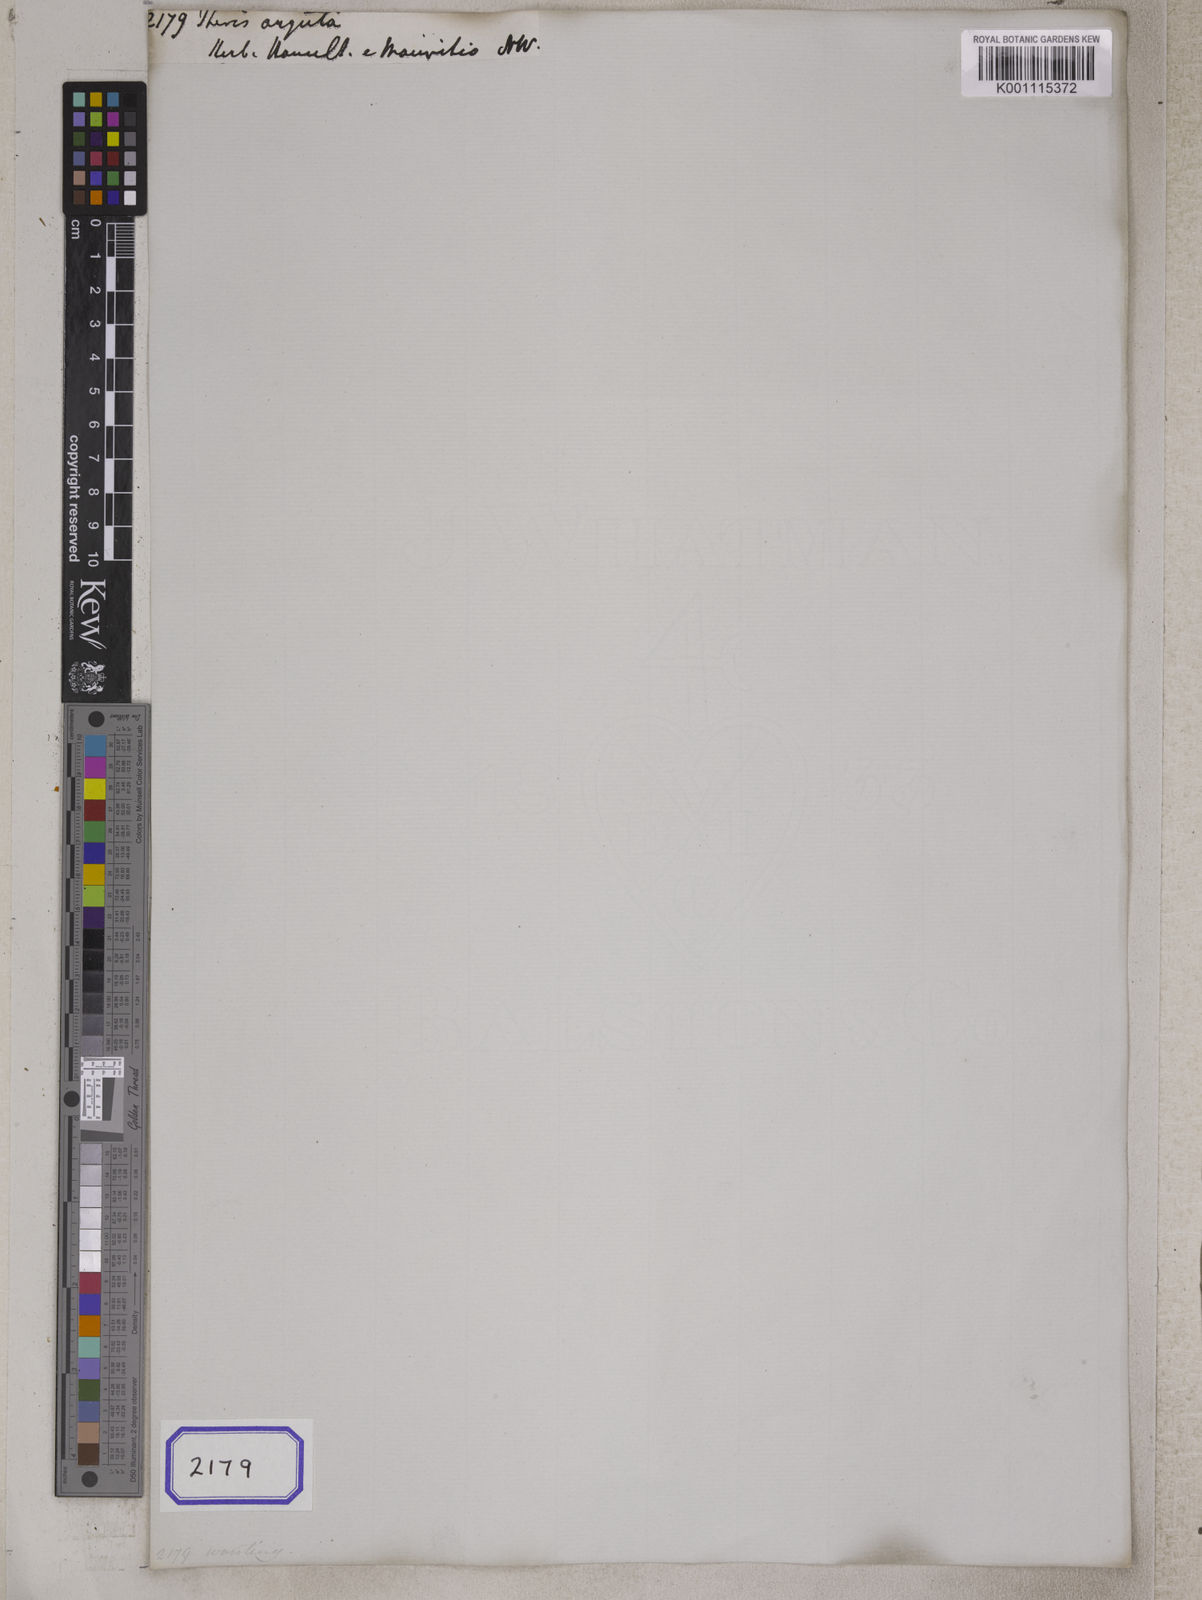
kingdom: Plantae
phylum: Tracheophyta
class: Polypodiopsida
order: Polypodiales
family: Pteridaceae
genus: Pteris
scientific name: Pteris
